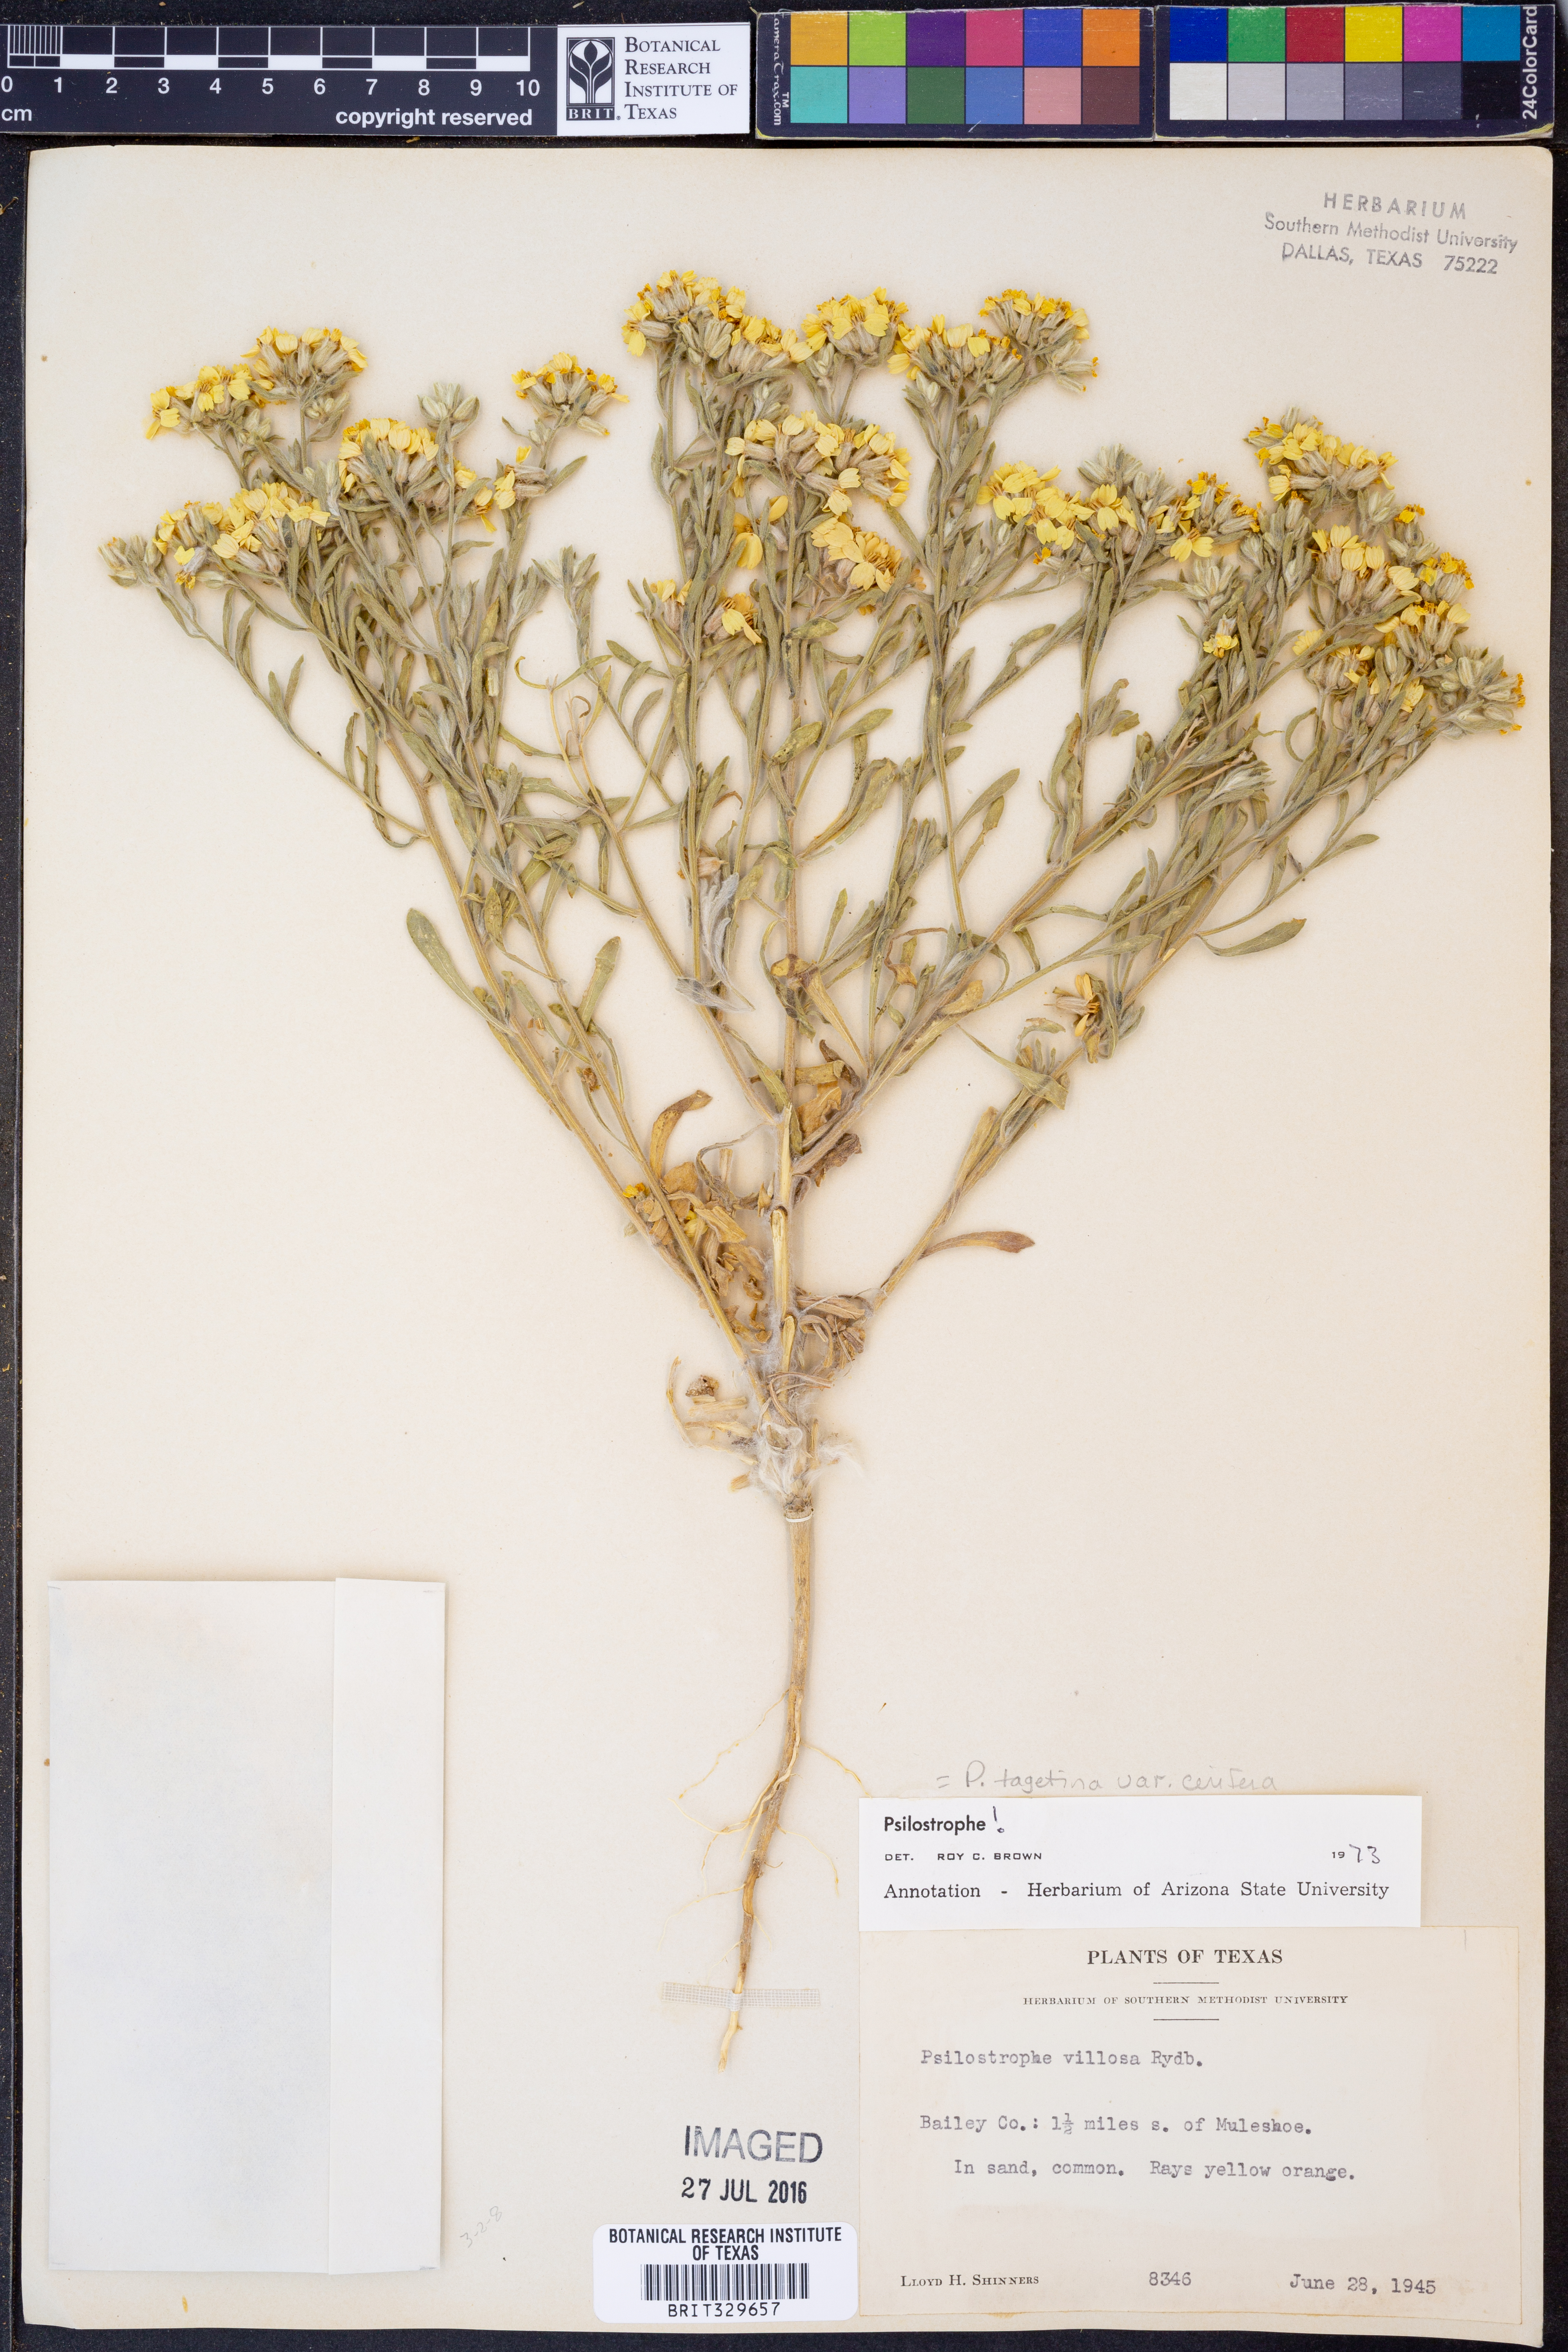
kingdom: Plantae
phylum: Tracheophyta
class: Magnoliopsida
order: Asterales
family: Asteraceae
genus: Psilostrophe
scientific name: Psilostrophe villosa
